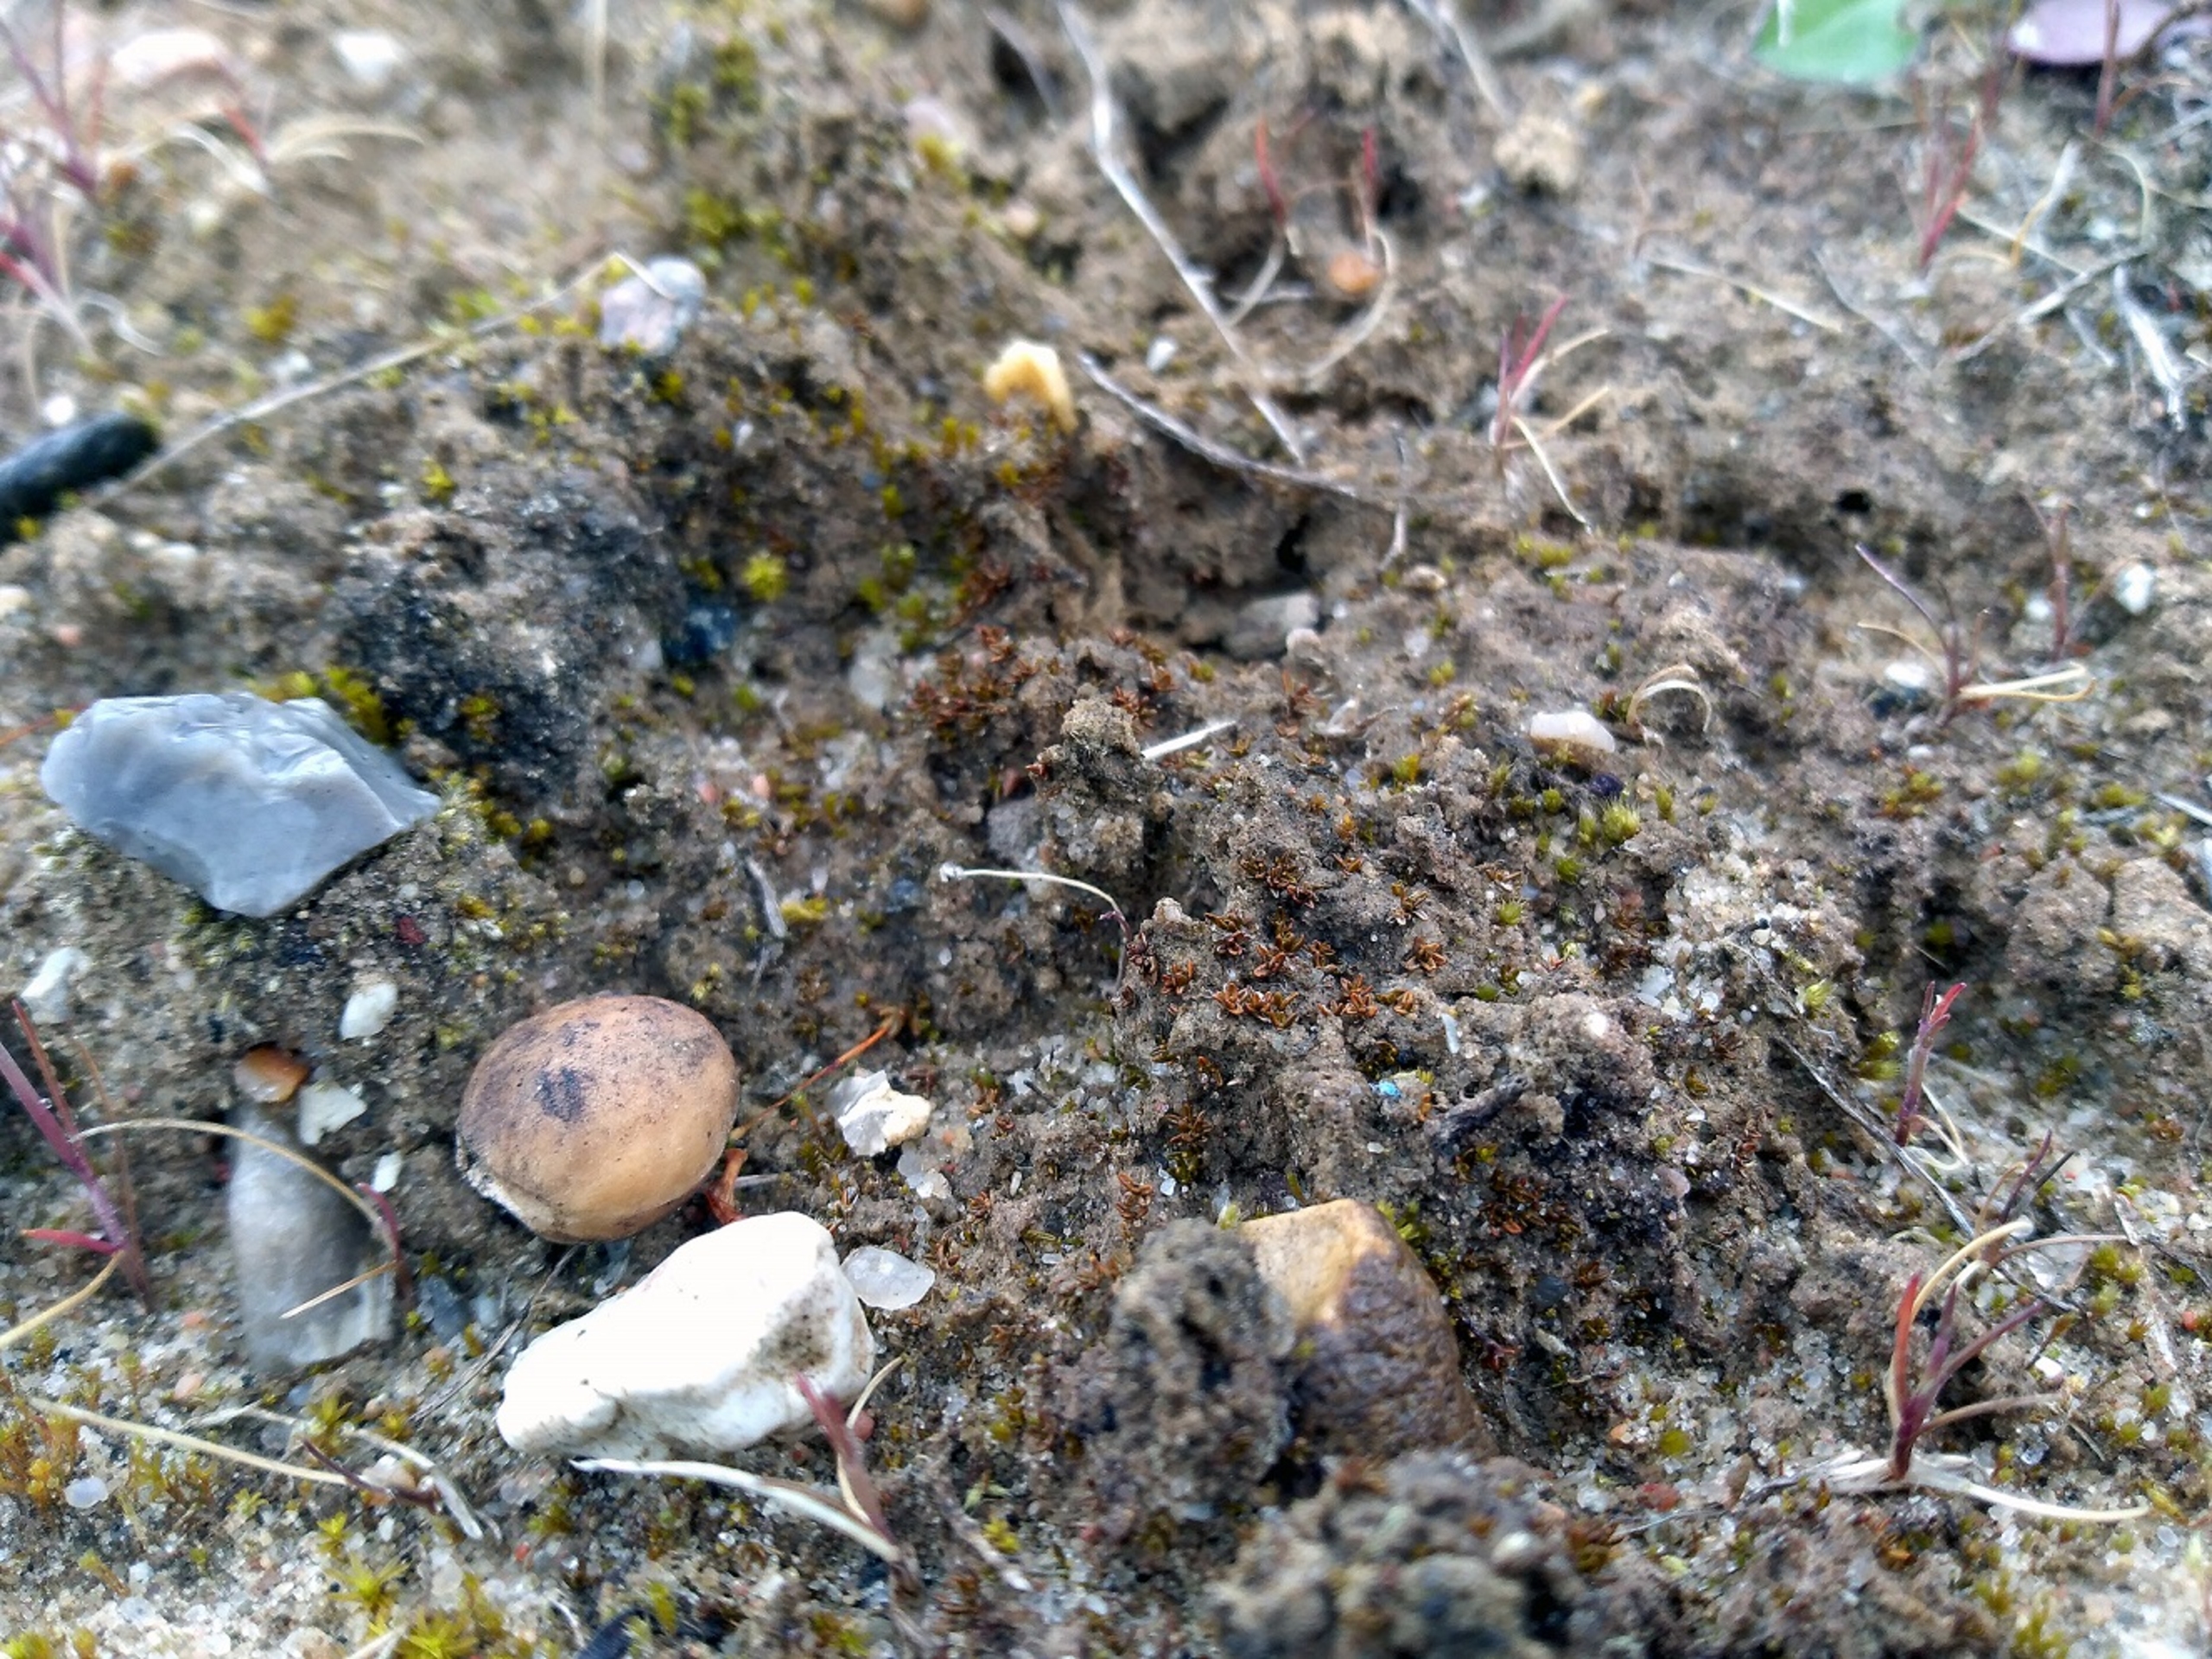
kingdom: Plantae
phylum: Bryophyta
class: Bryopsida
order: Pottiales
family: Pottiaceae
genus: Aloina
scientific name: Aloina rigida
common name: Stiv tøffelmos
